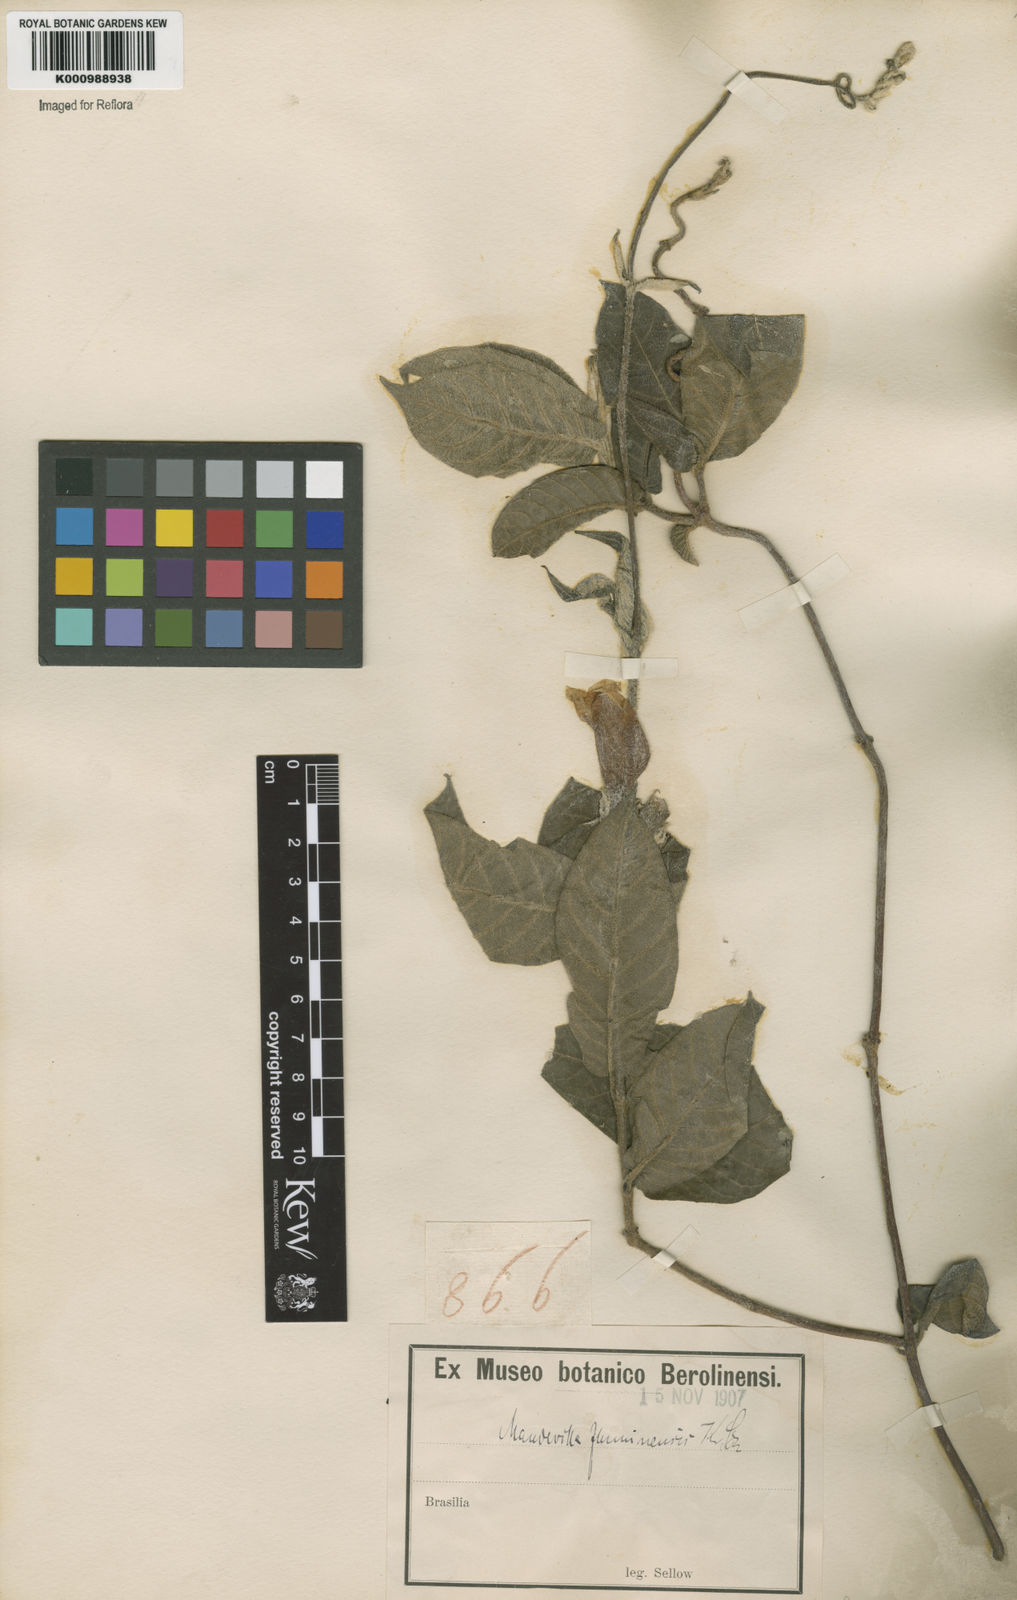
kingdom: Plantae
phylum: Tracheophyta
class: Magnoliopsida
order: Gentianales
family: Apocynaceae
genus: Mandevilla
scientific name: Mandevilla hirsuta
